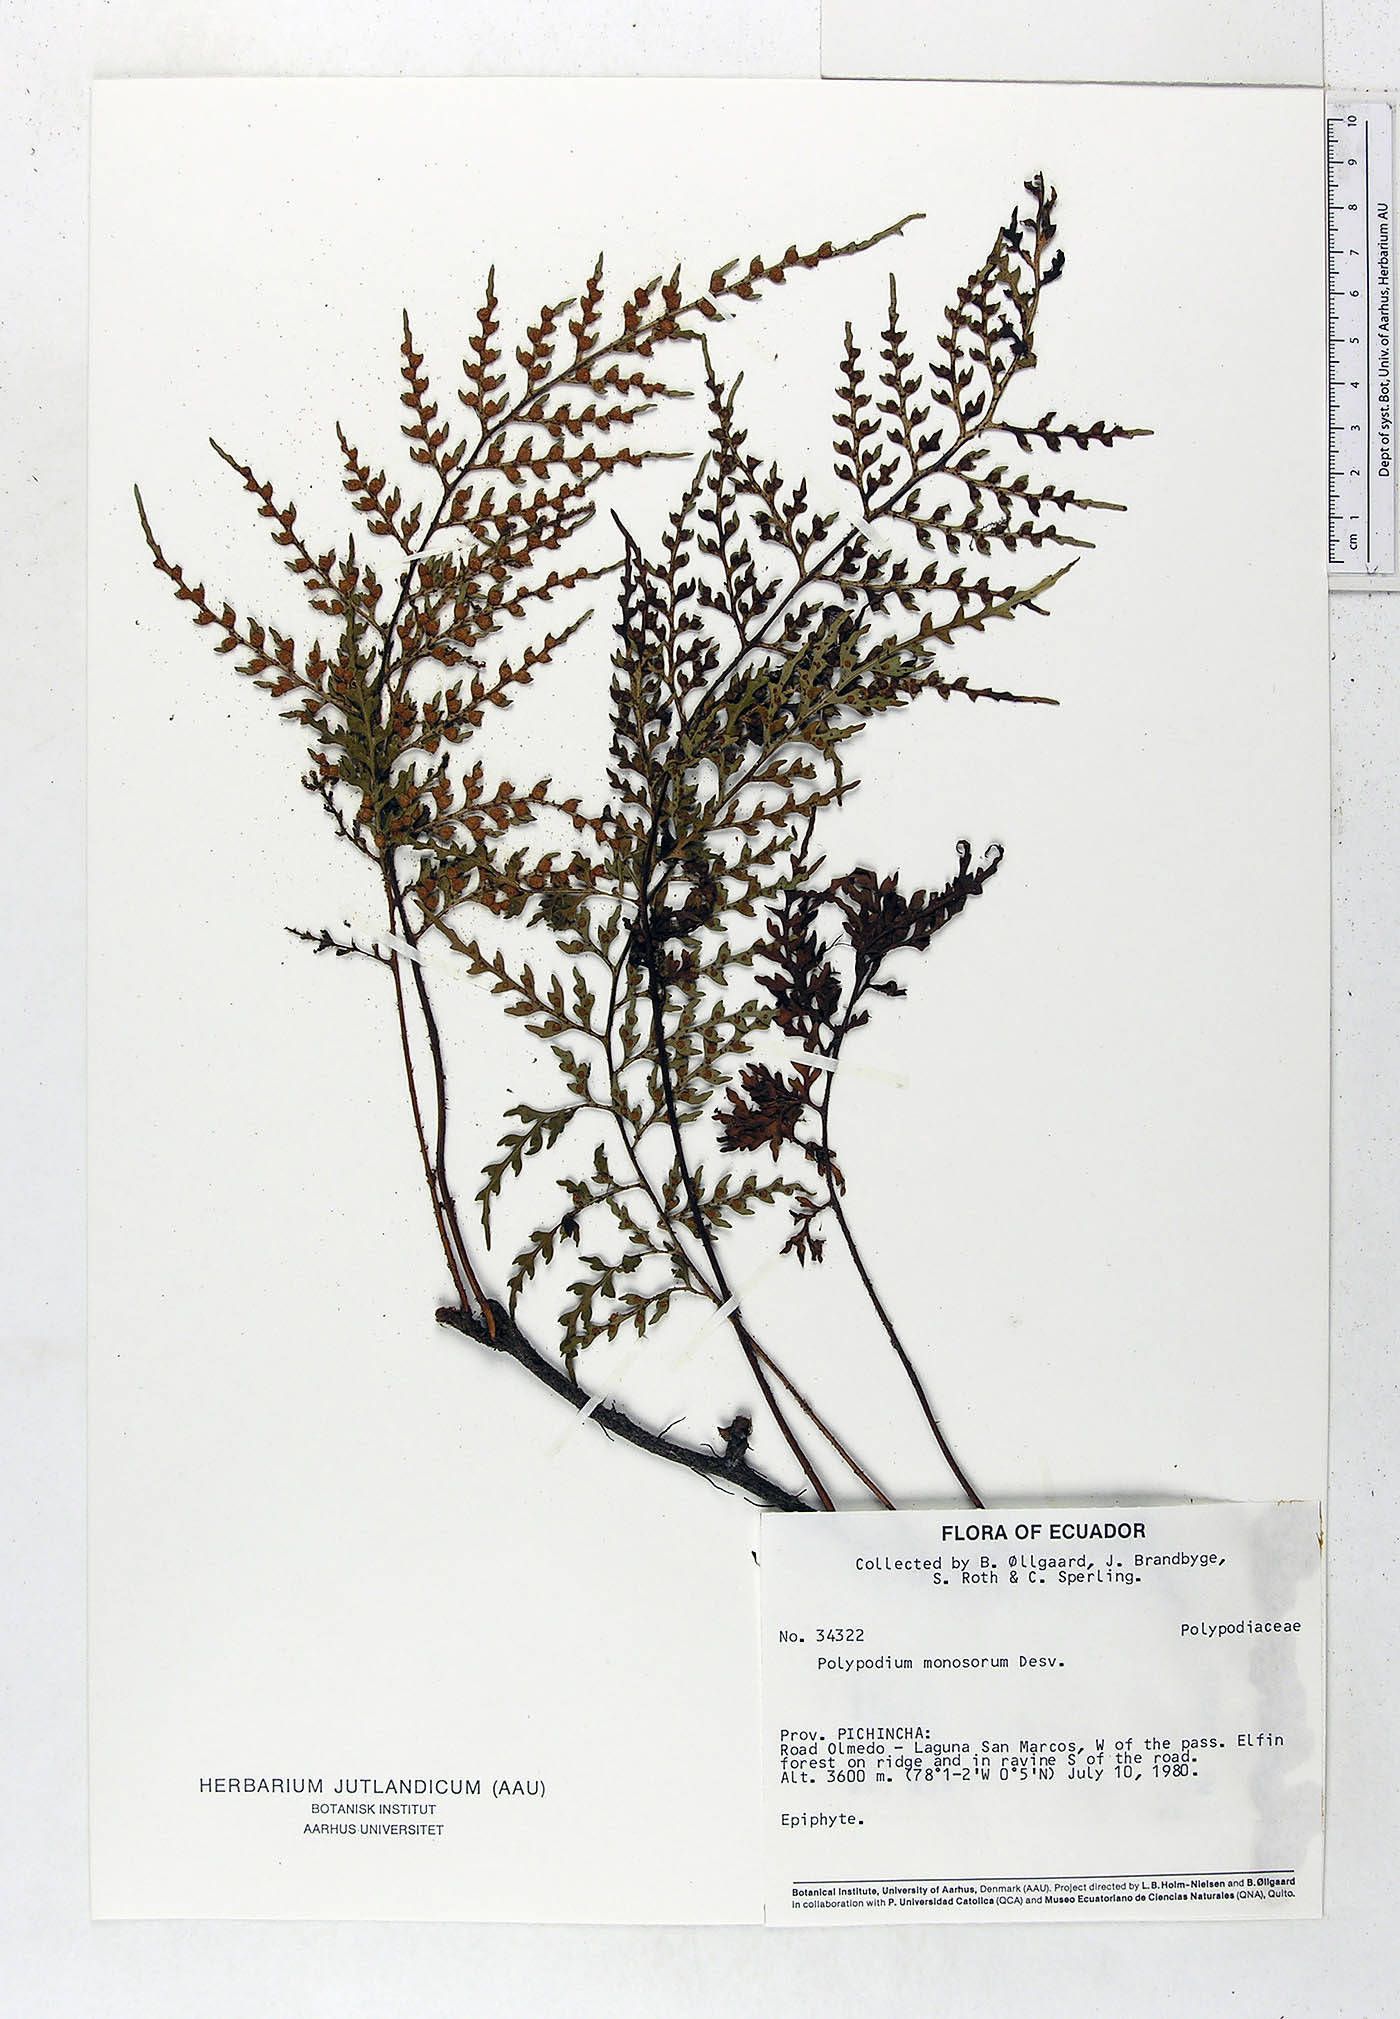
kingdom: Plantae
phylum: Tracheophyta
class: Polypodiopsida
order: Polypodiales
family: Polypodiaceae
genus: Pleopeltis
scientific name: Pleopeltis monosora
